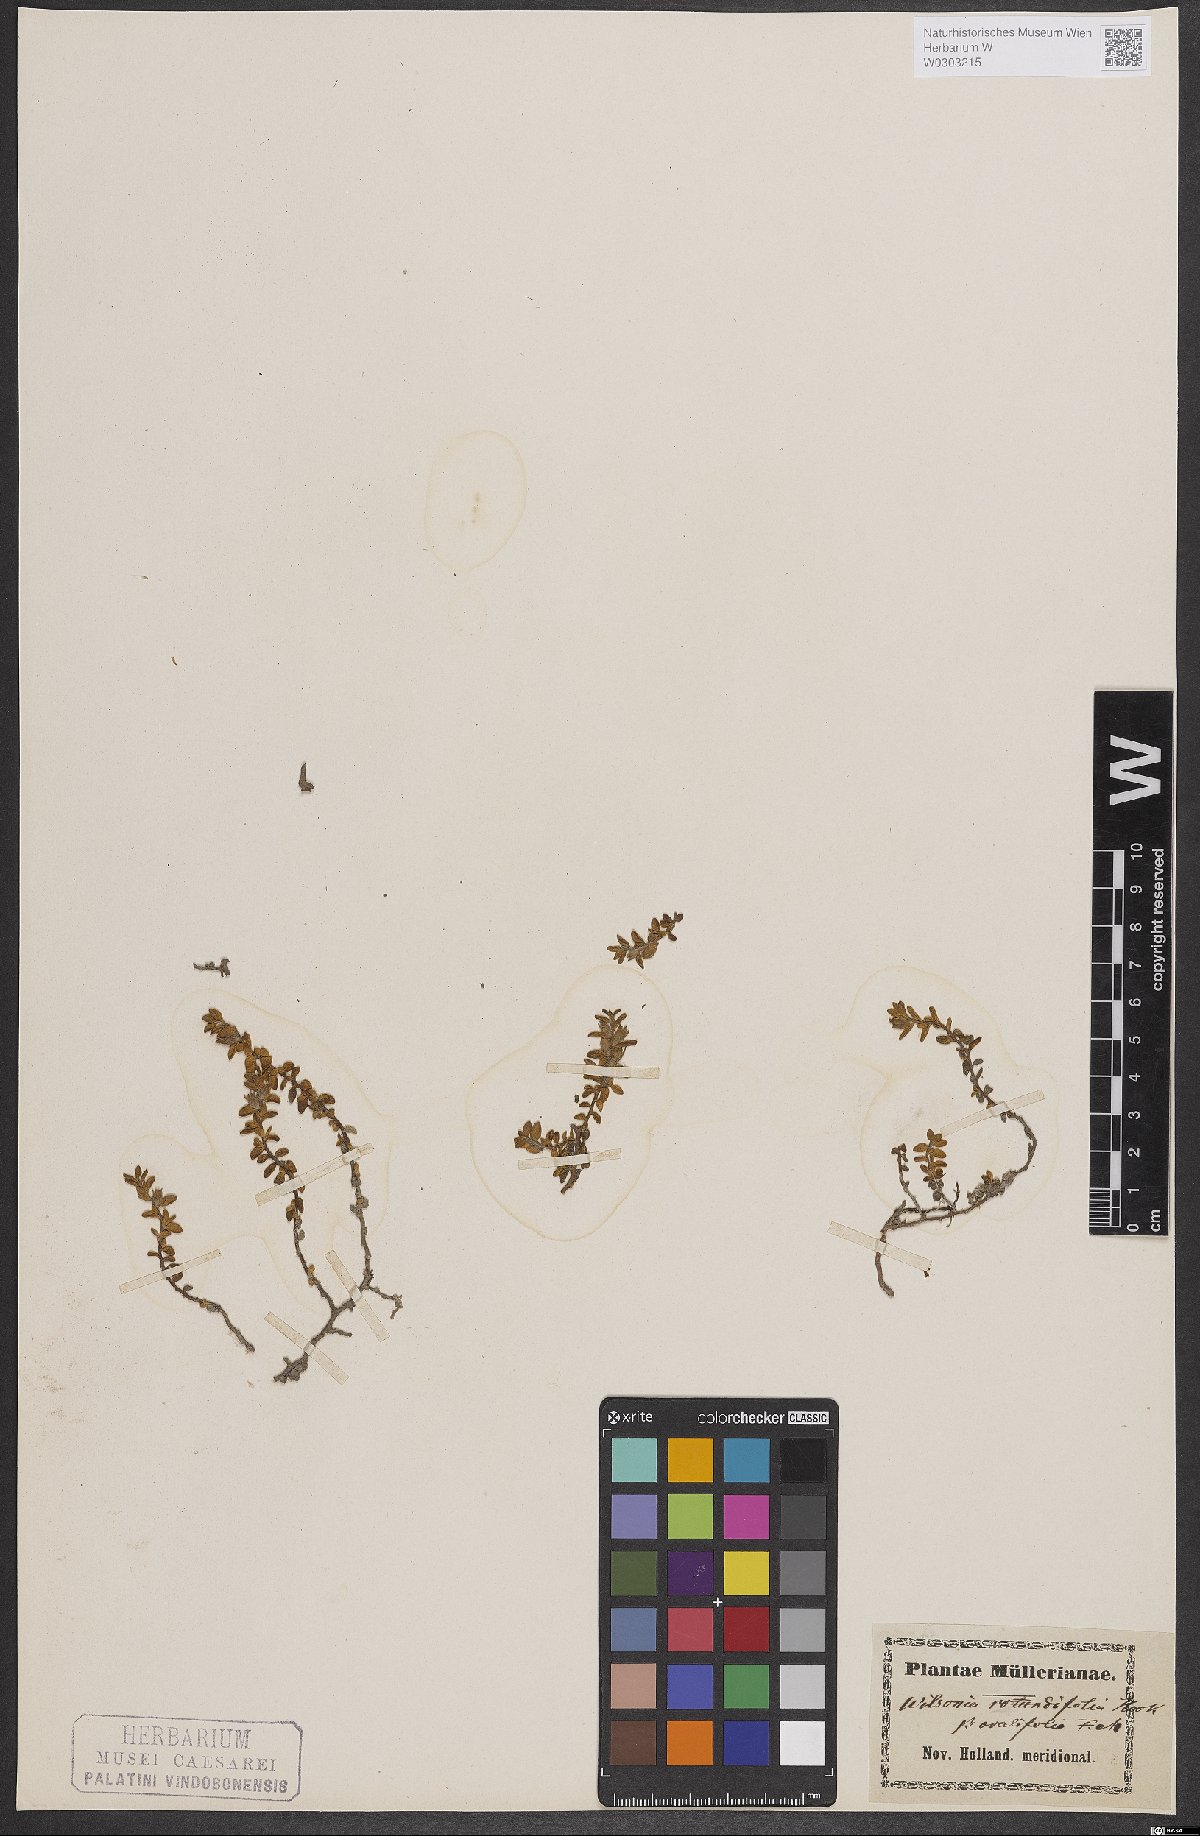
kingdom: Plantae
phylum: Tracheophyta
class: Magnoliopsida
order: Solanales
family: Convolvulaceae
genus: Wilsonia
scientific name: Wilsonia rotundifolia
